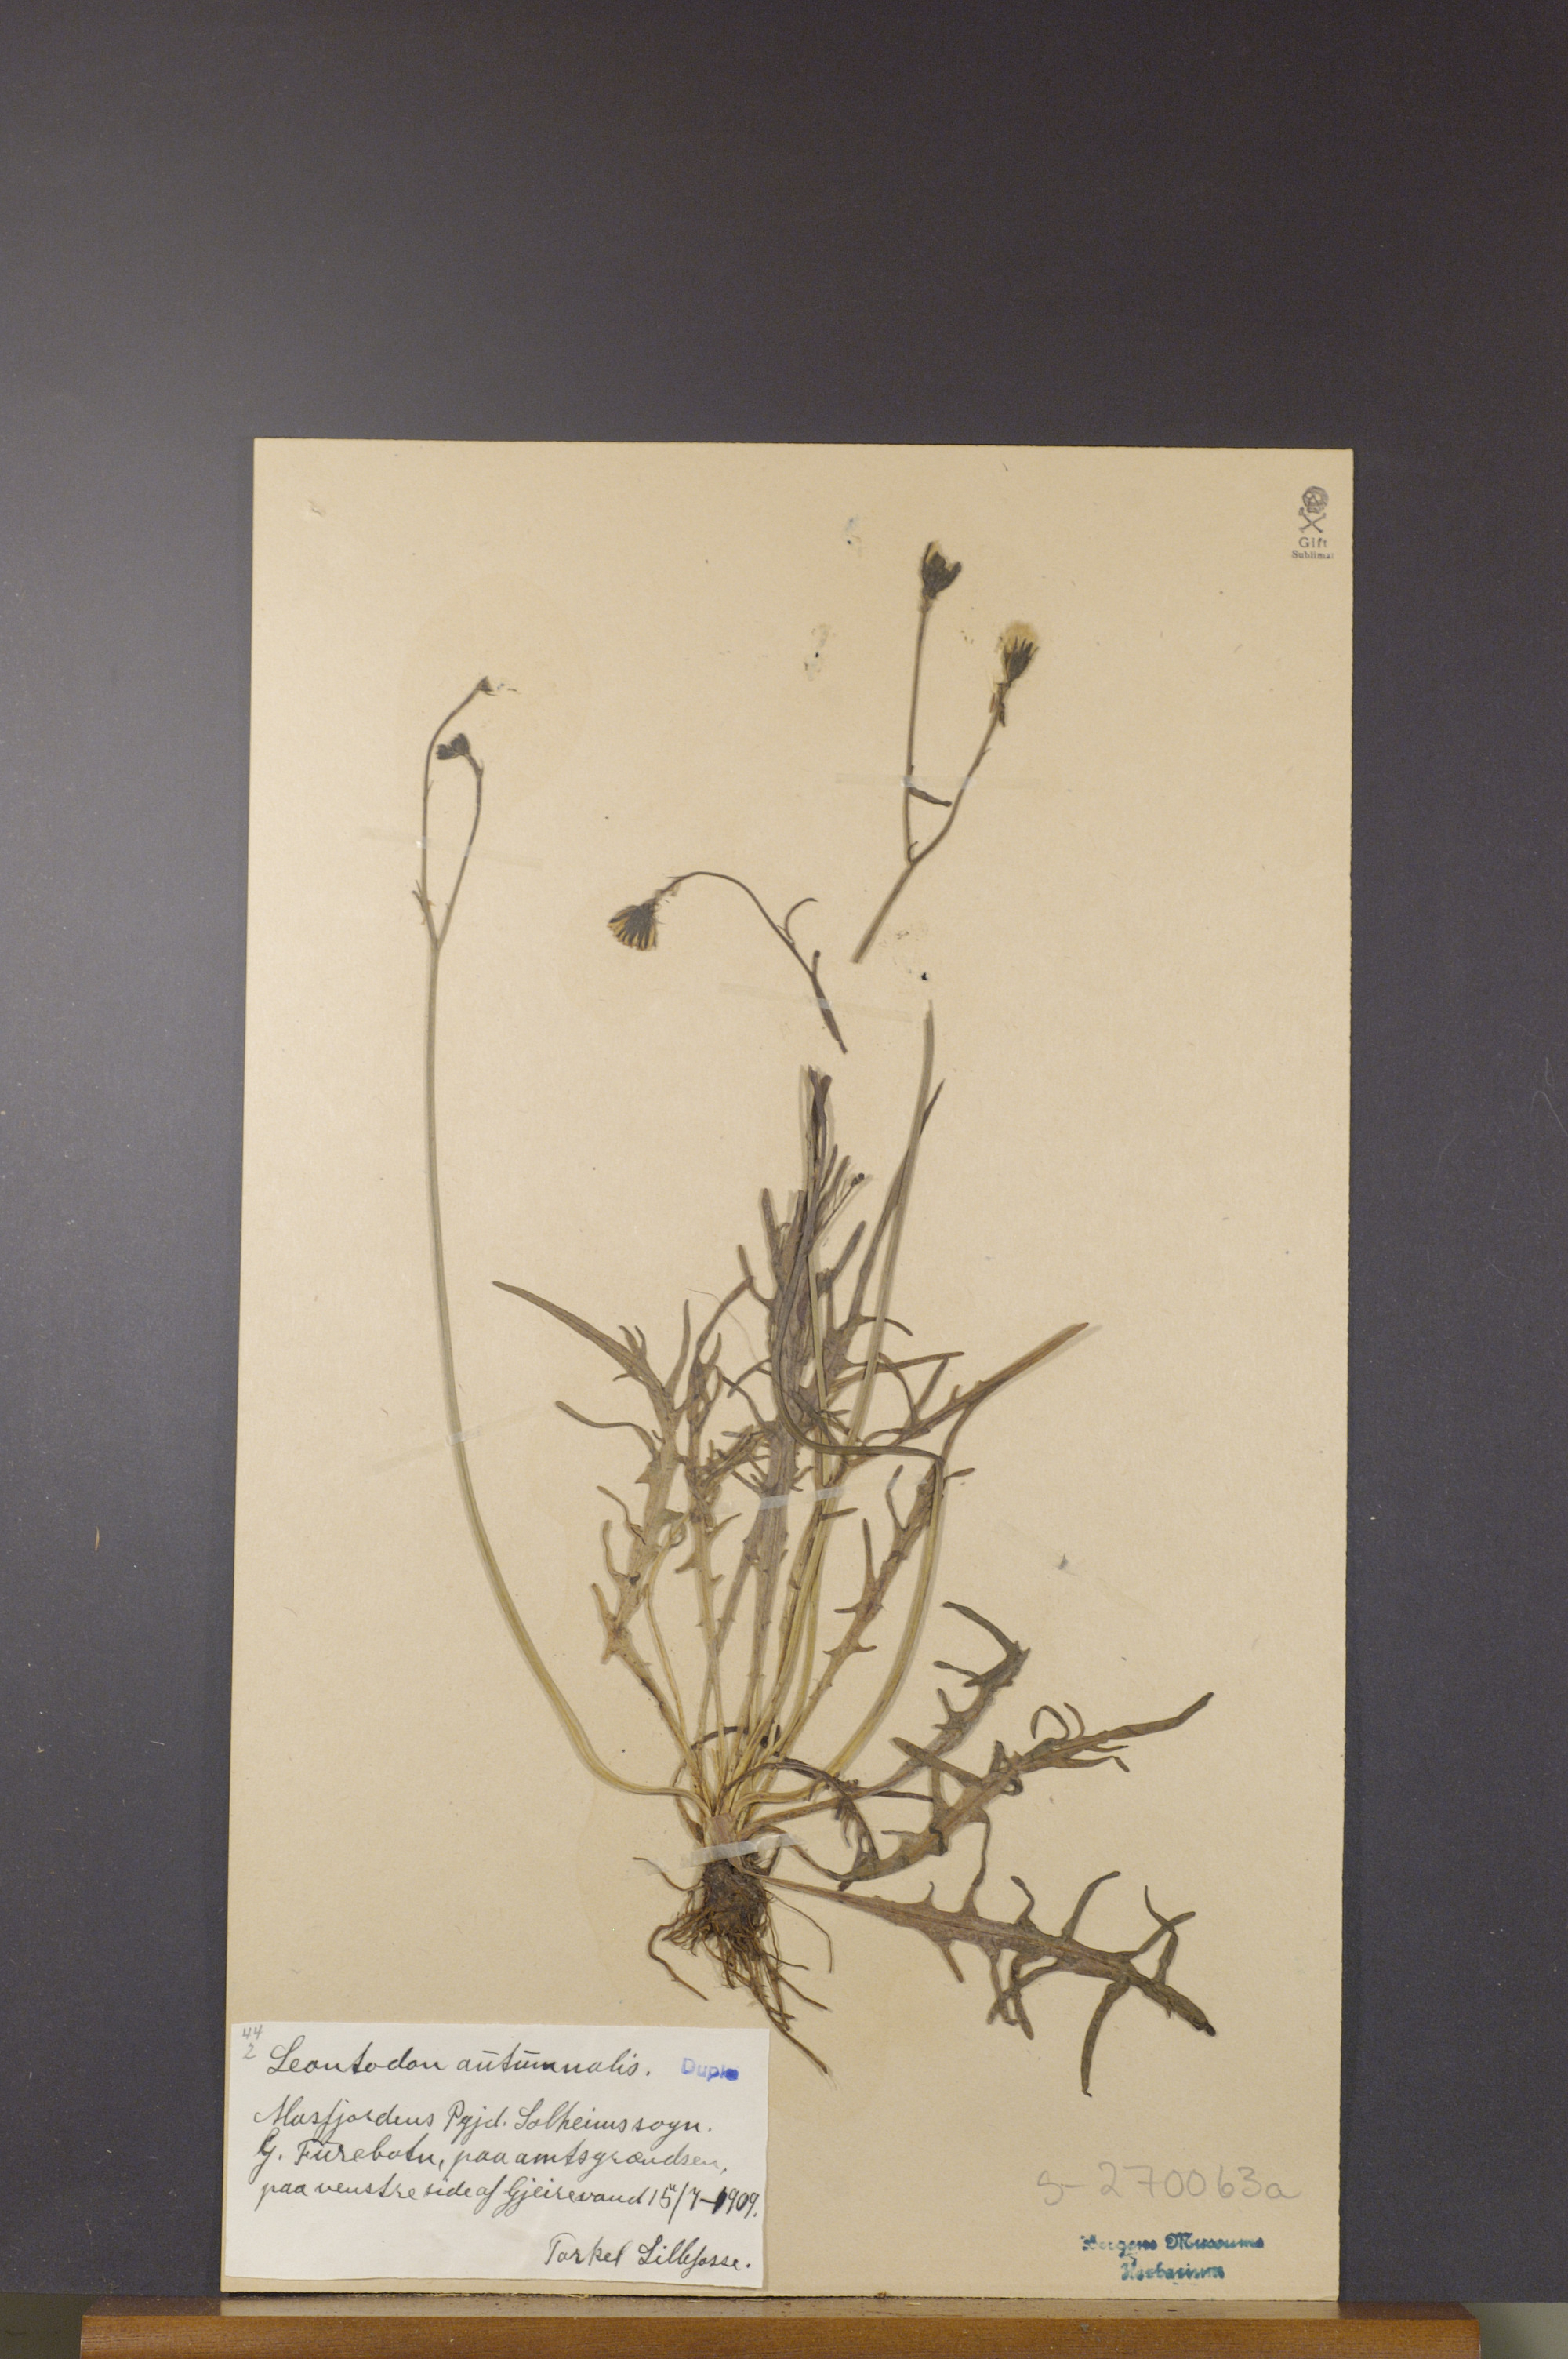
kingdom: Plantae
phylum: Tracheophyta
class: Magnoliopsida
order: Asterales
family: Asteraceae
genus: Scorzoneroides
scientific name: Scorzoneroides autumnalis
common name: Autumn hawkbit
